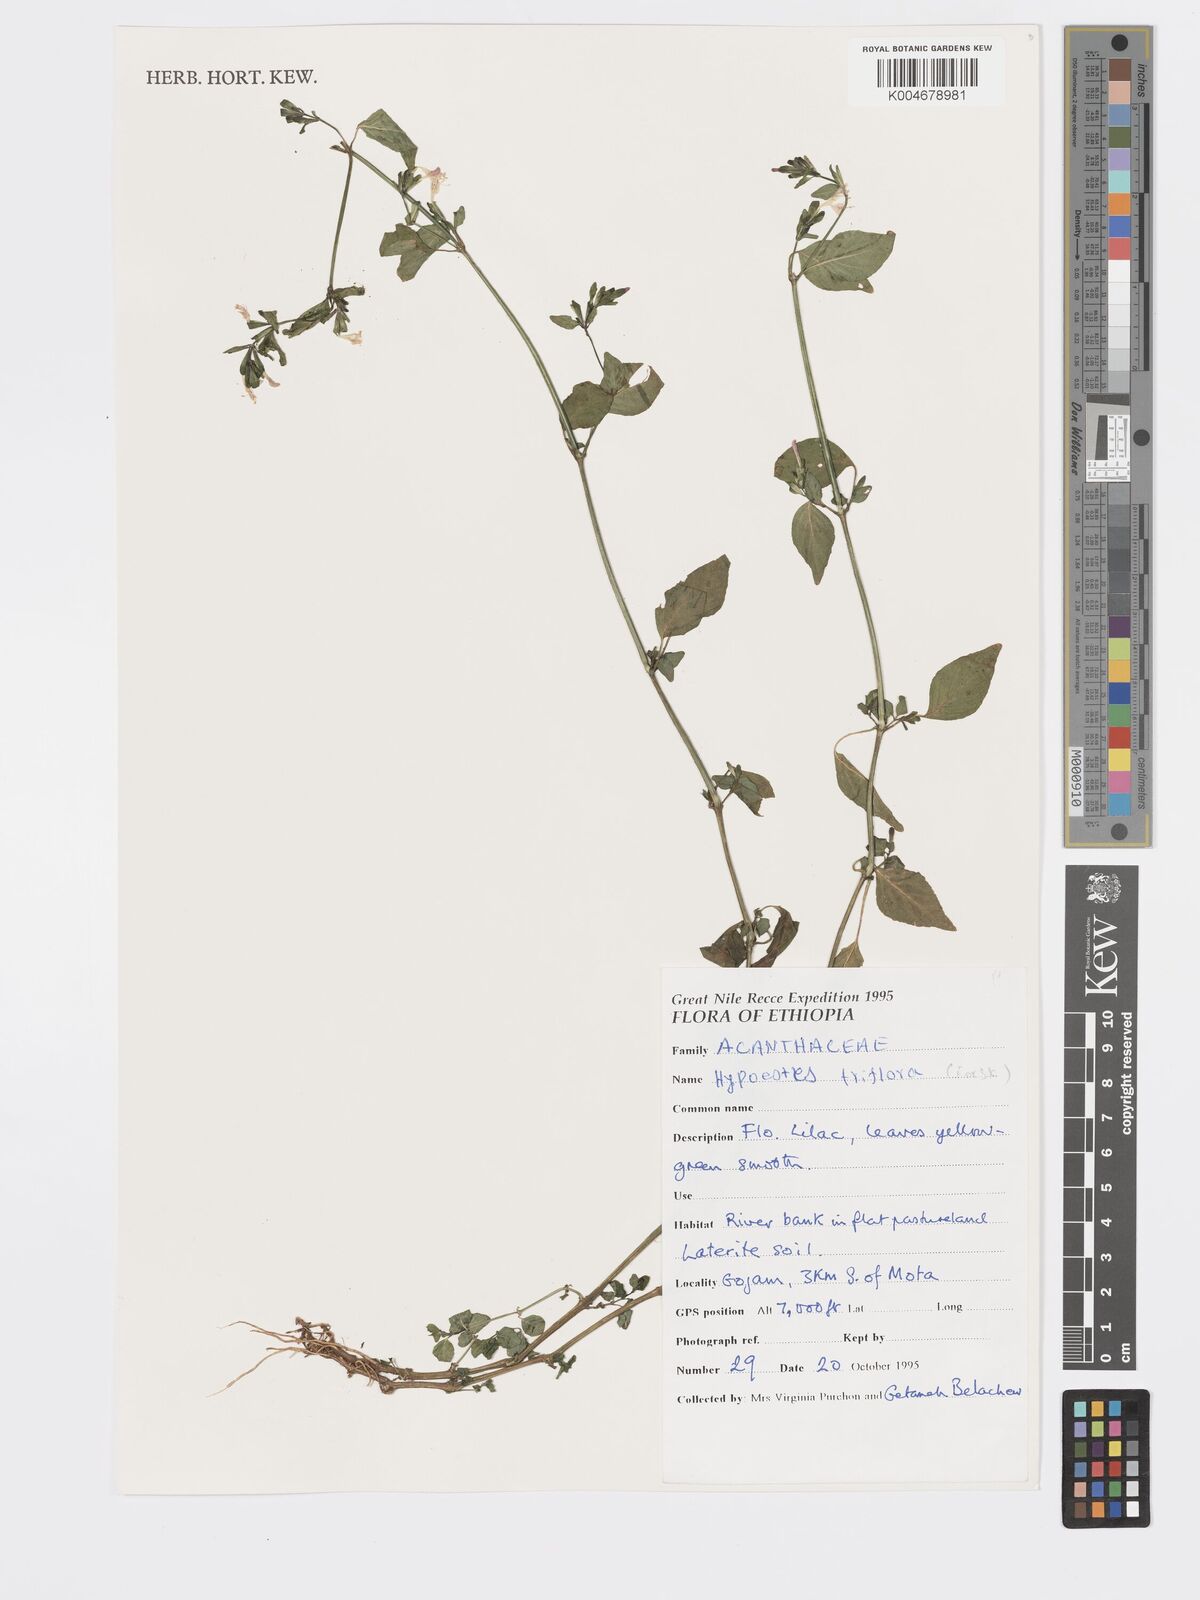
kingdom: Plantae
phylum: Tracheophyta
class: Magnoliopsida
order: Lamiales
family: Acanthaceae
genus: Hypoestes
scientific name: Hypoestes triflora
